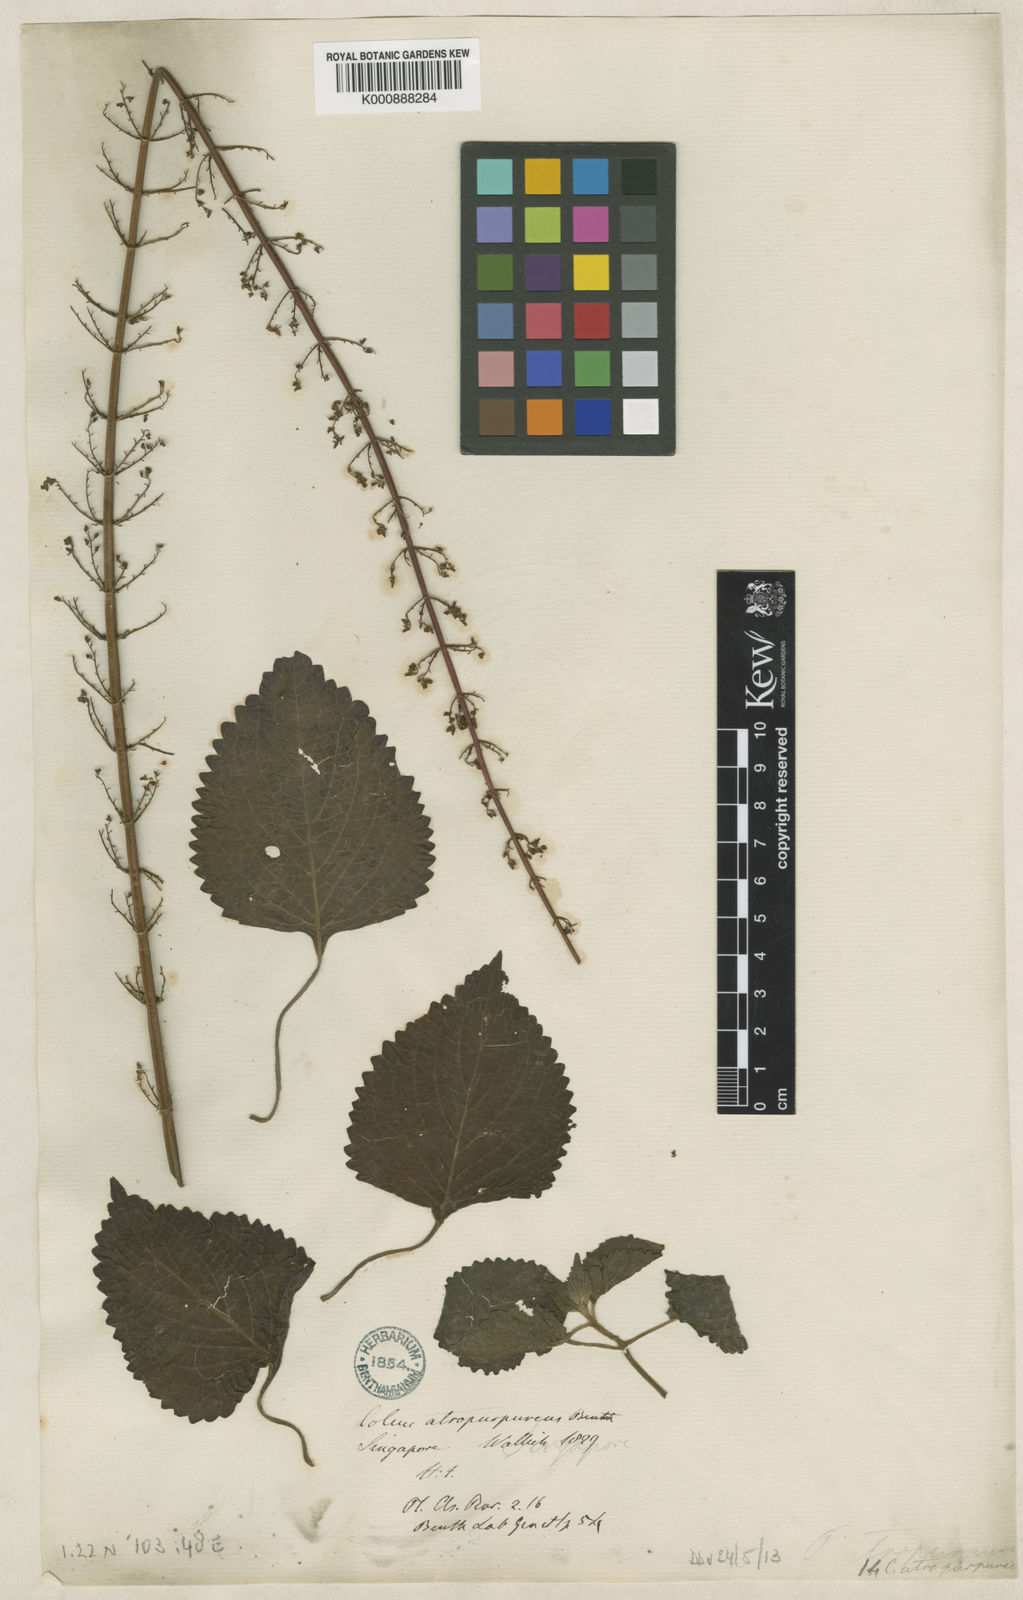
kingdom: Plantae
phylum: Tracheophyta
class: Magnoliopsida
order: Lamiales
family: Lamiaceae
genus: Plectranthus
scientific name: Plectranthus
